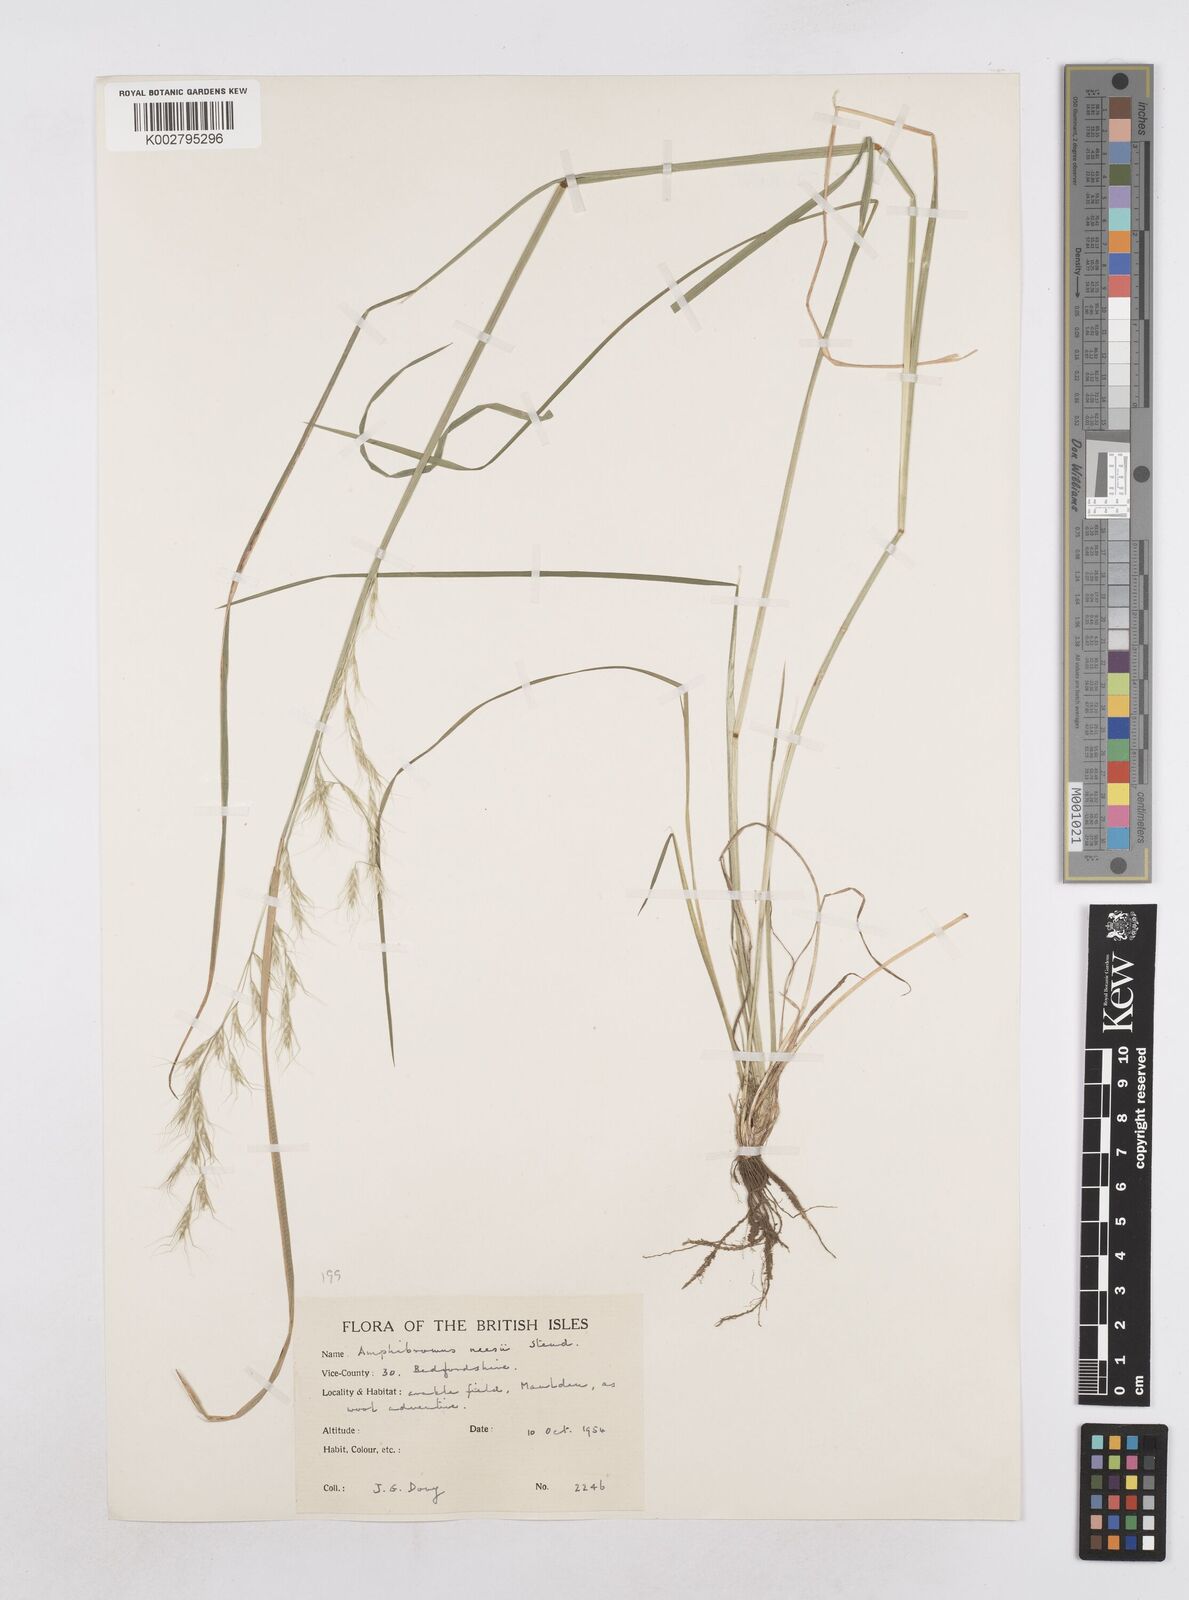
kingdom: Plantae
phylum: Tracheophyta
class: Liliopsida
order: Poales
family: Poaceae
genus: Amphibromus
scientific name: Amphibromus neesii
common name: Australian wallaby grass
